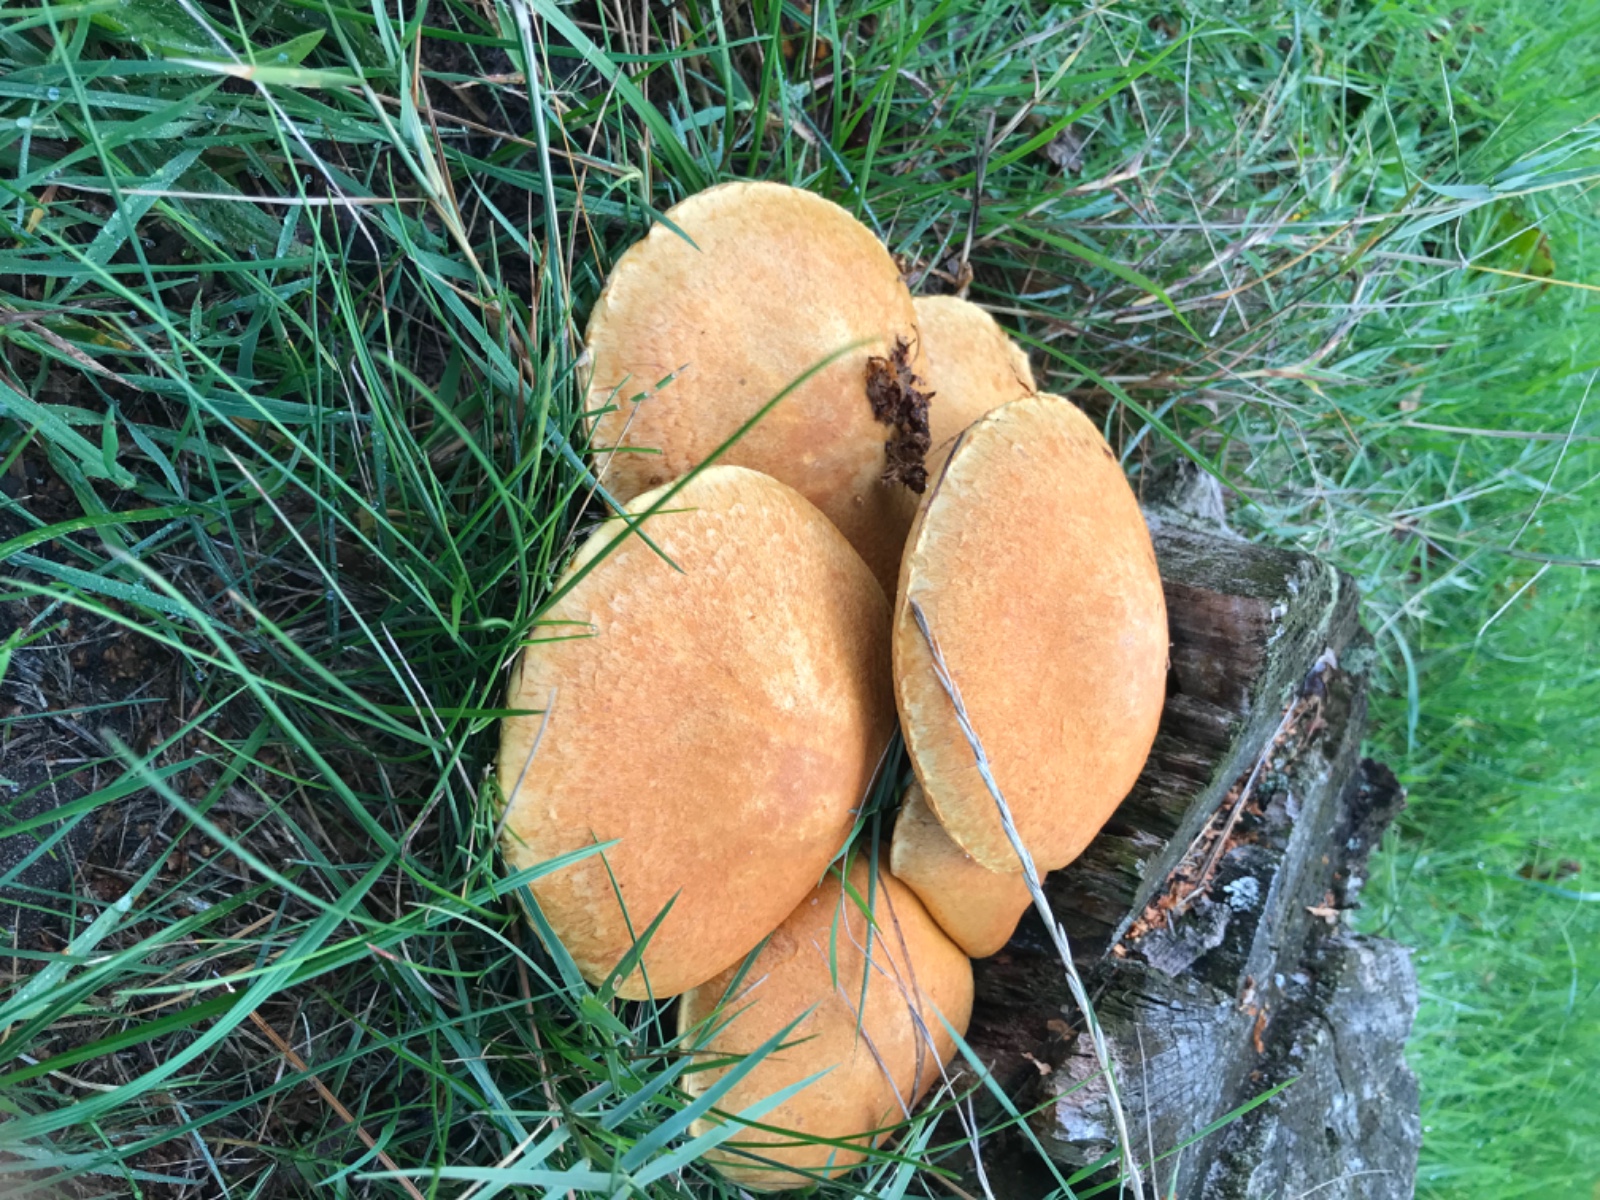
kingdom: Fungi
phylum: Basidiomycota
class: Agaricomycetes
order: Agaricales
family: Hymenogastraceae
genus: Gymnopilus
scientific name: Gymnopilus spectabilis
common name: fibret flammehat
